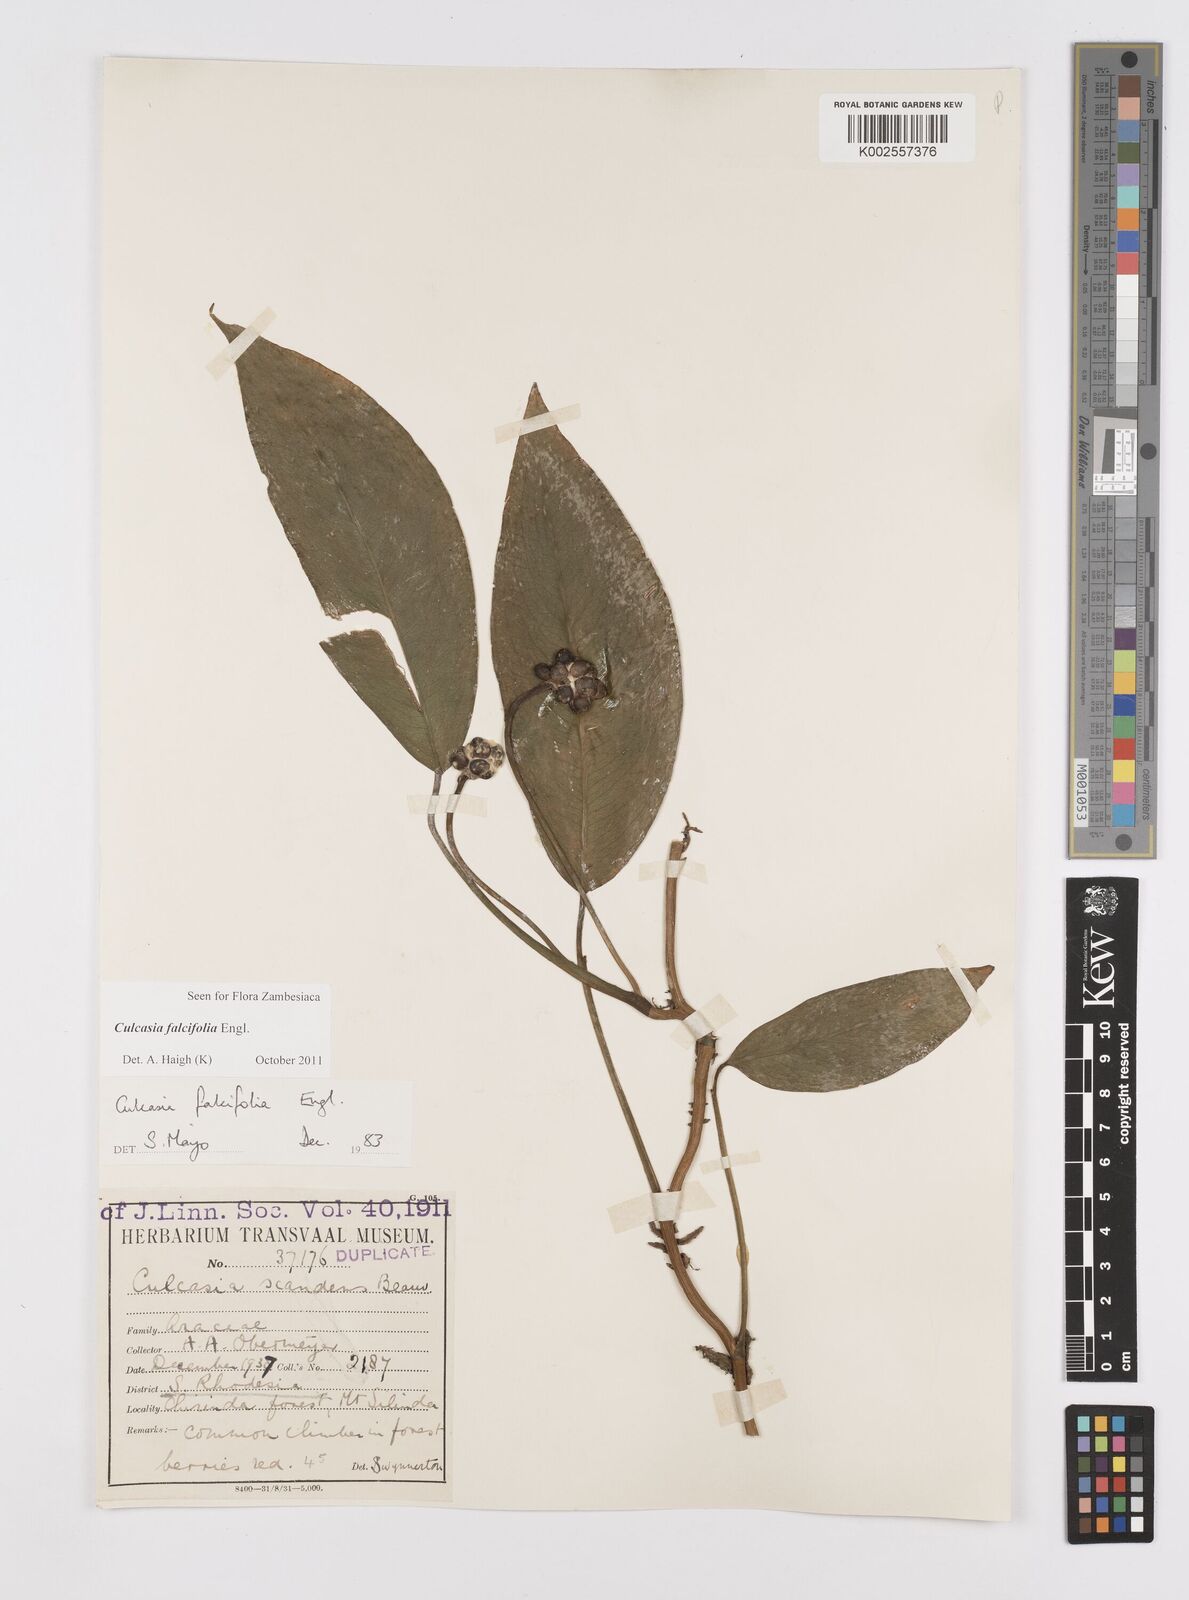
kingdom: Plantae
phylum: Tracheophyta
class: Liliopsida
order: Alismatales
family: Araceae
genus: Culcasia
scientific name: Culcasia falcifolia
